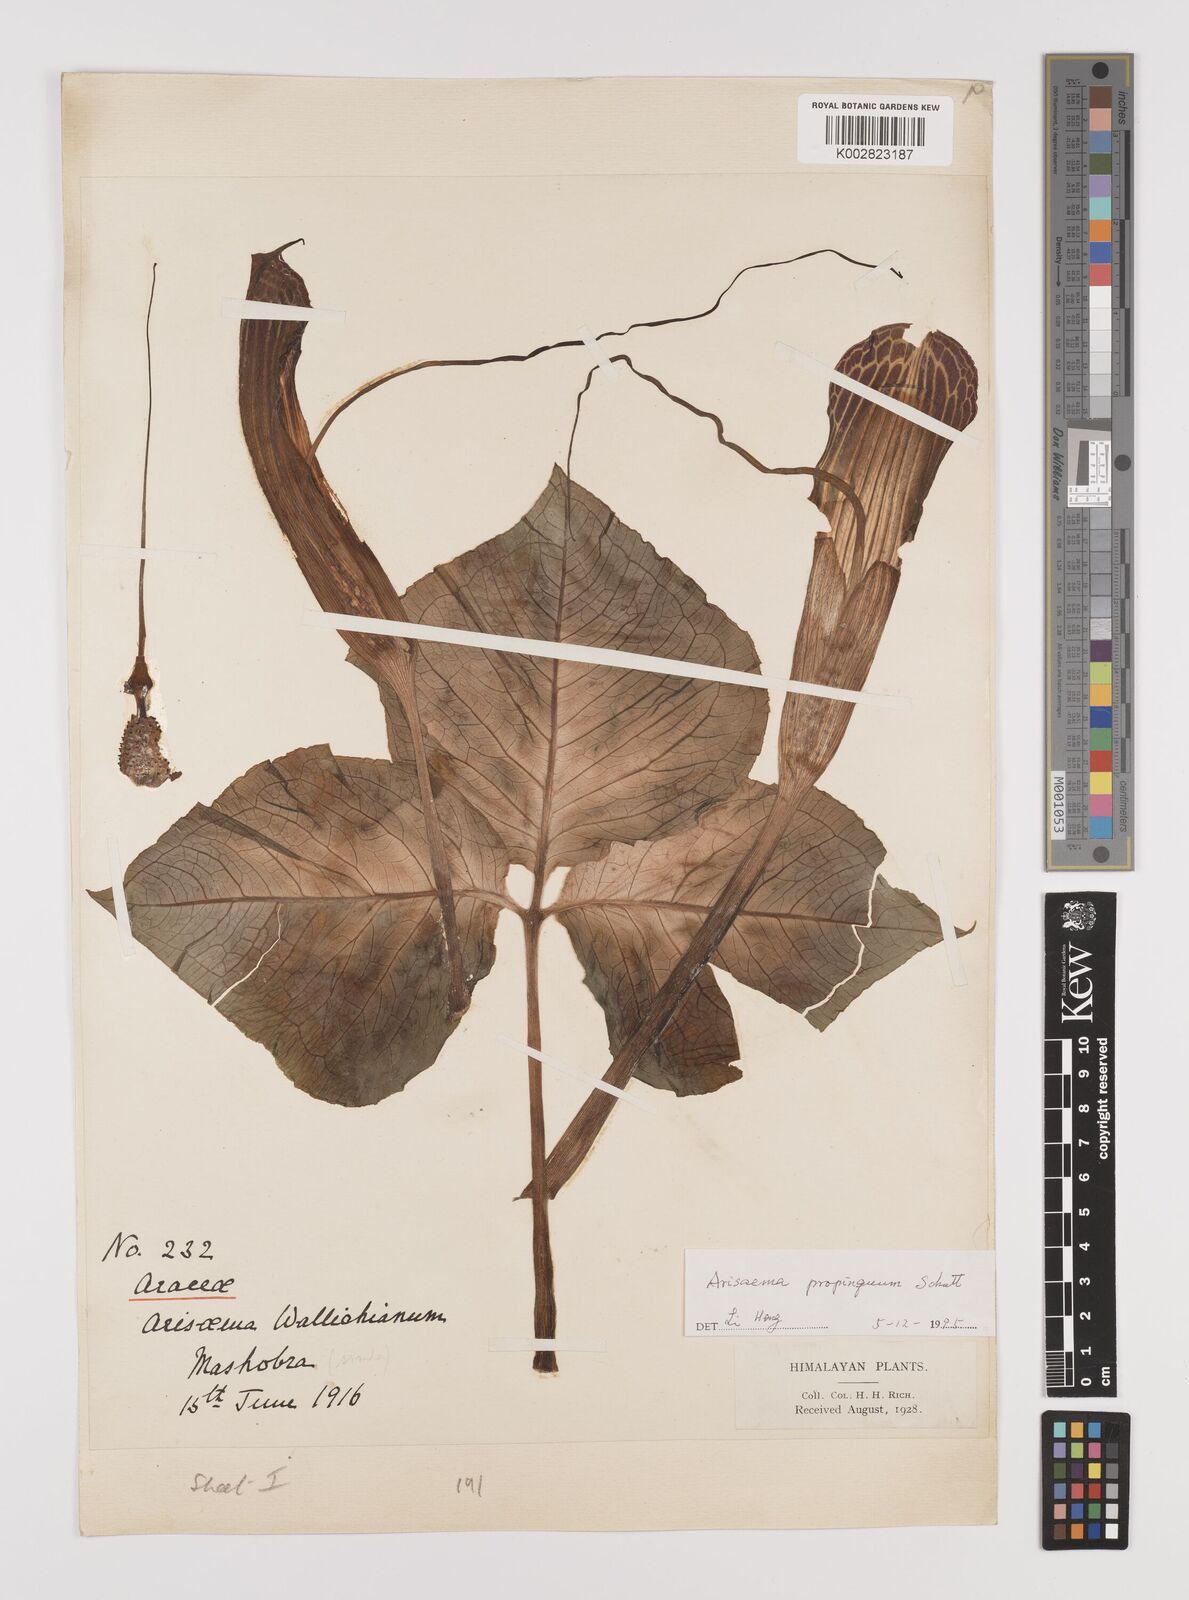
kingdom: Plantae
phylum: Tracheophyta
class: Liliopsida
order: Alismatales
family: Araceae
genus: Arisaema
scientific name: Arisaema propinquum
